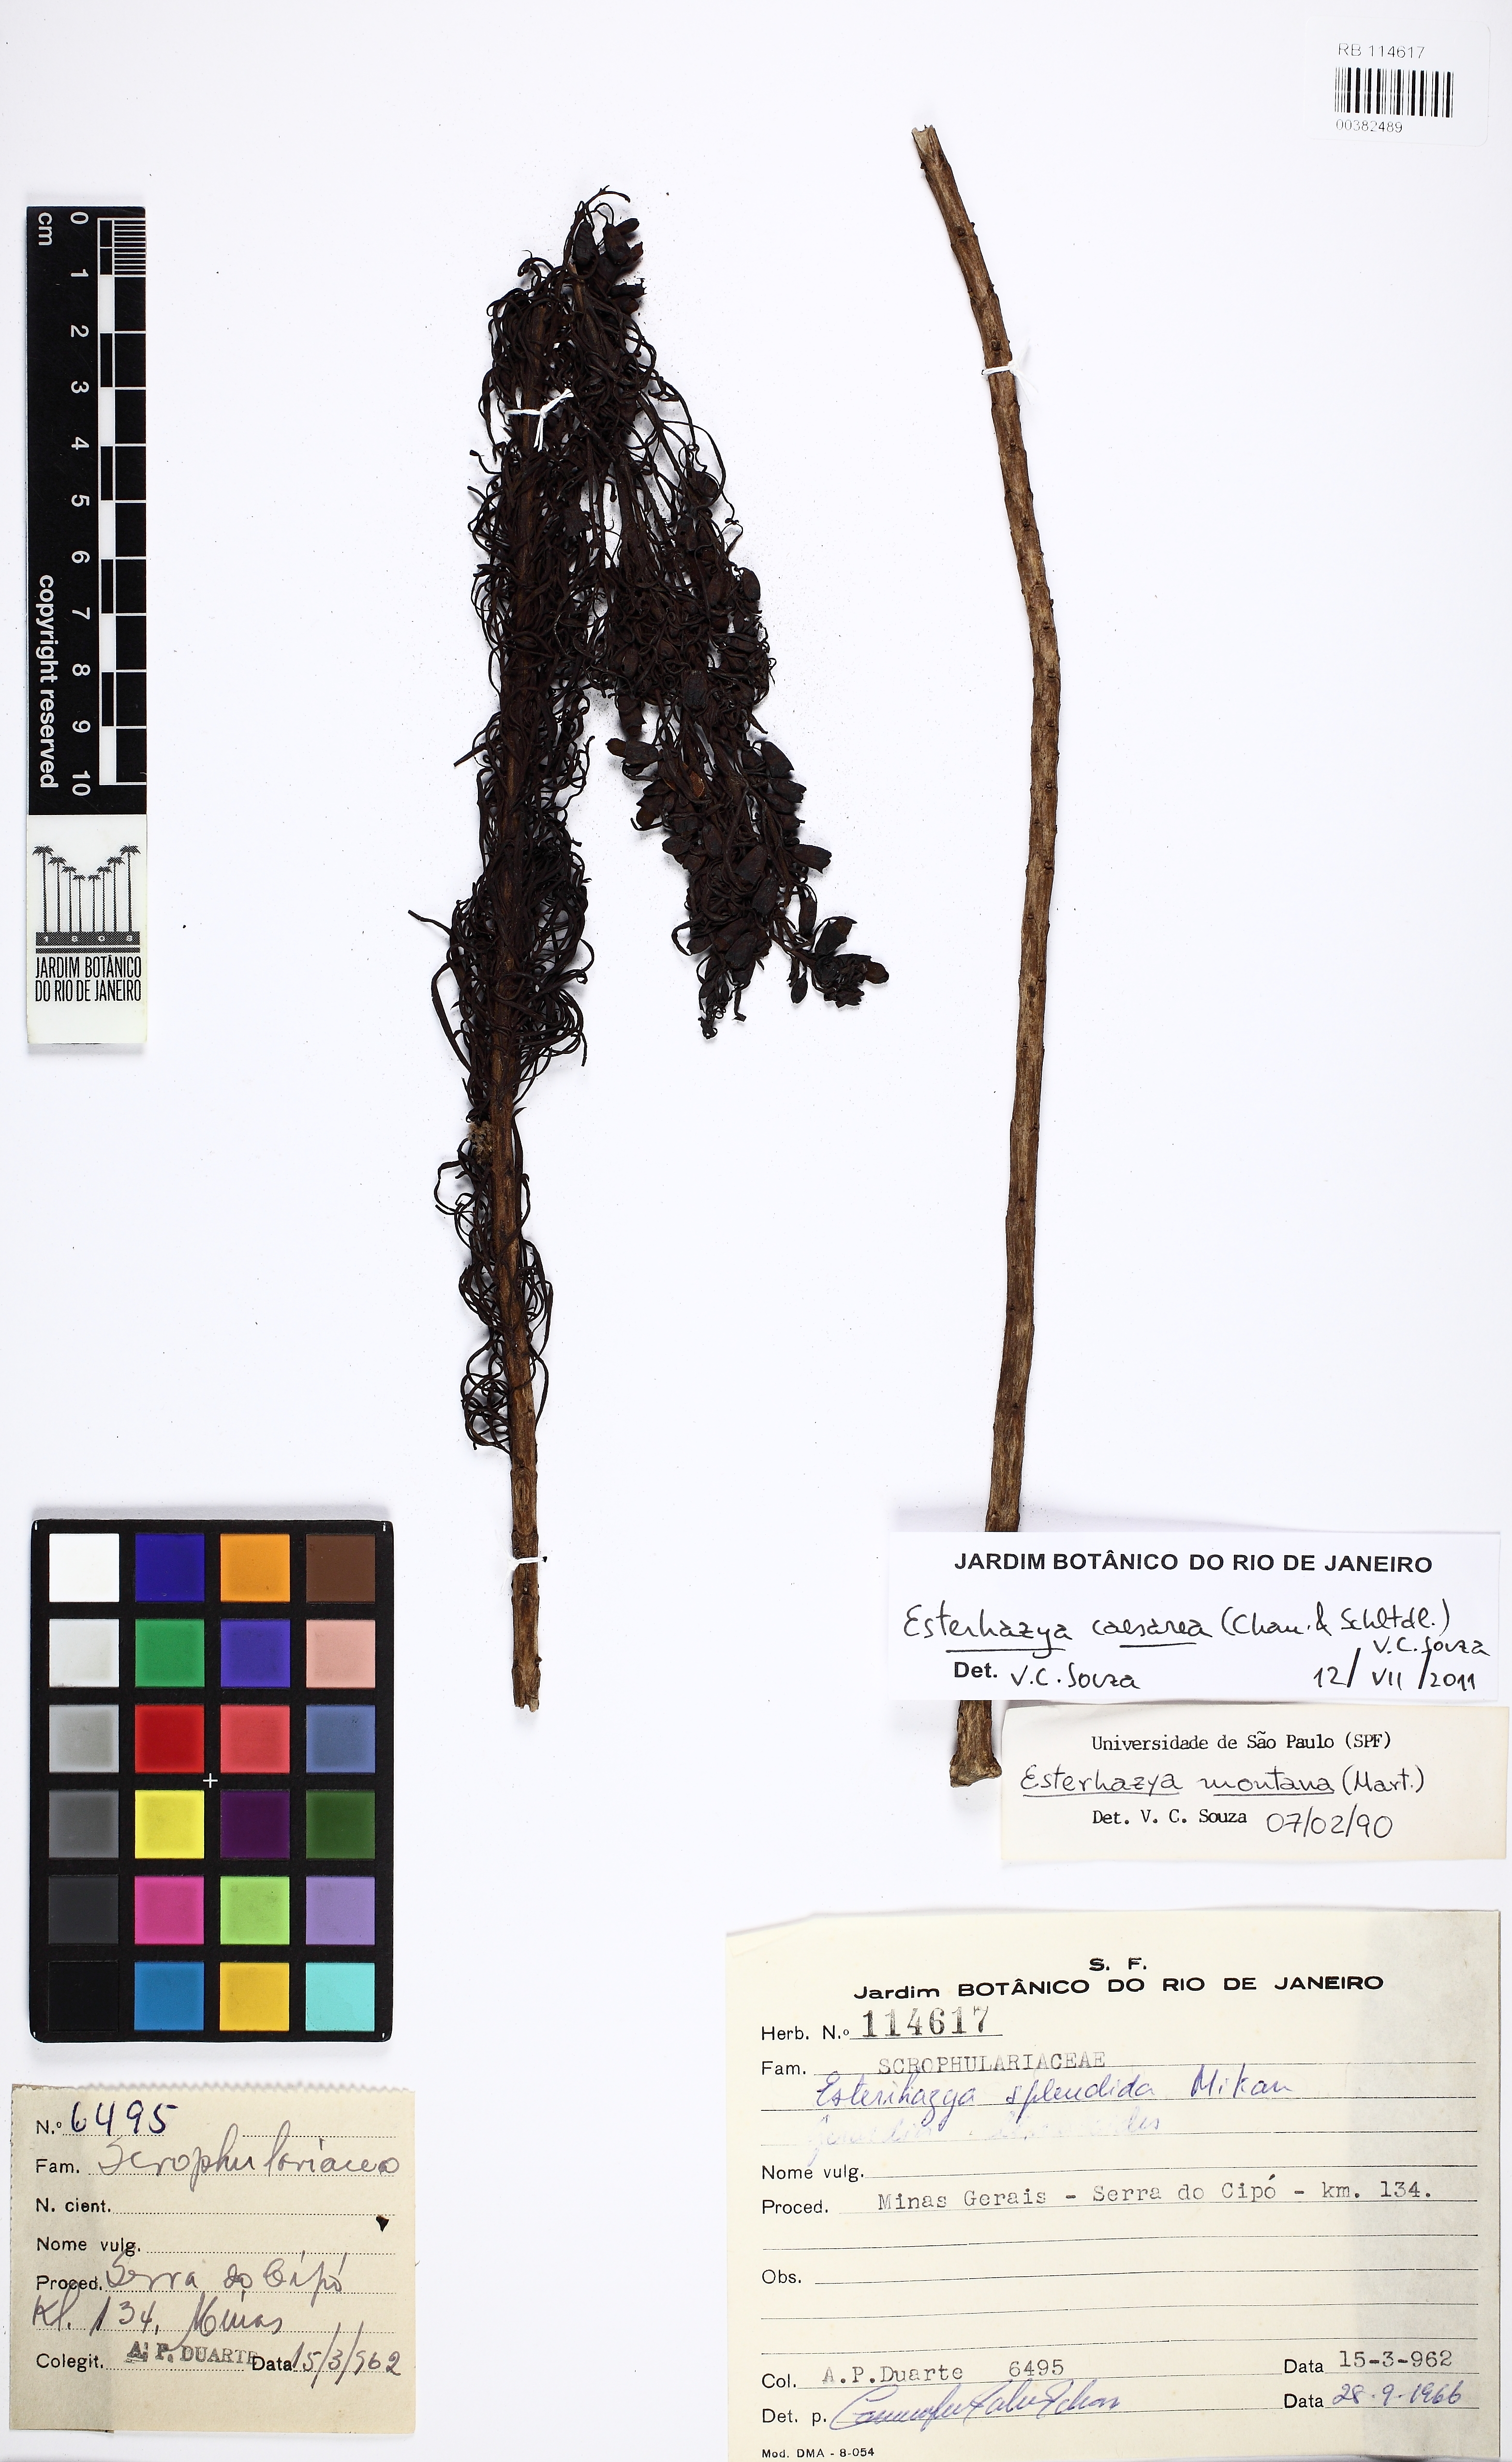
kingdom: Plantae
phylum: Tracheophyta
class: Magnoliopsida
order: Lamiales
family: Orobanchaceae
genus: Esterhazya
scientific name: Esterhazya caesarea
